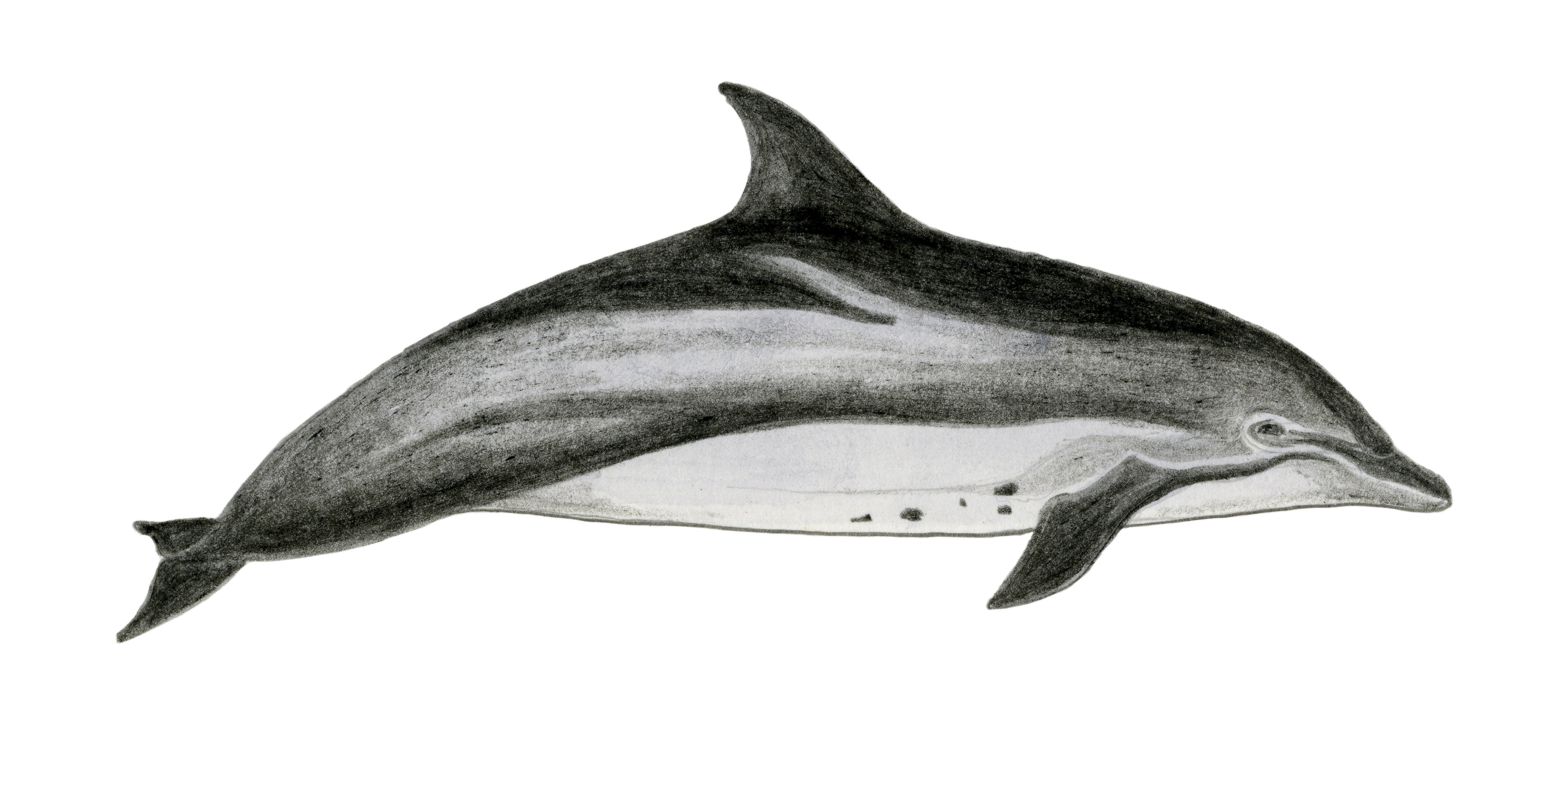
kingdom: Animalia
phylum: Chordata
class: Mammalia
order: Cetacea
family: Delphinidae
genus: Tursiops
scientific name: Tursiops aduncus
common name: Indo-pacific bottlenose dolphin
